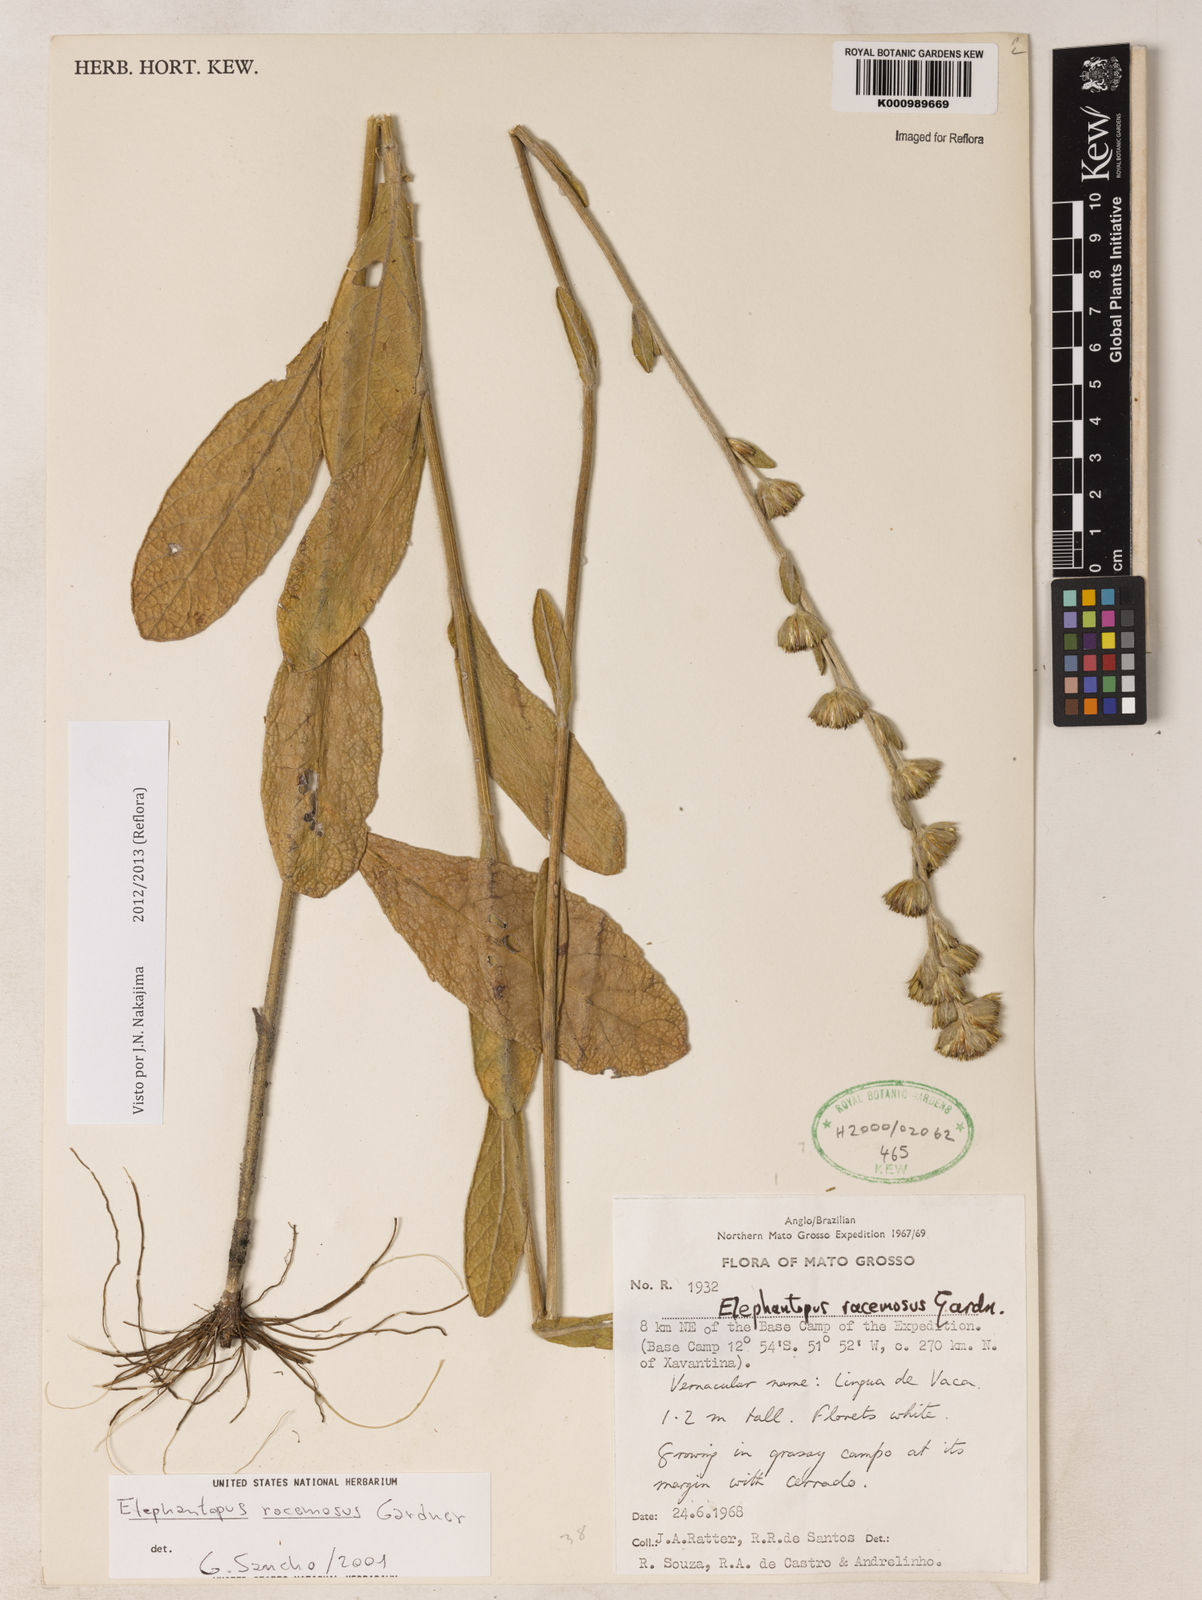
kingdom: Plantae
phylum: Tracheophyta
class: Magnoliopsida
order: Asterales
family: Asteraceae
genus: Elephantopus
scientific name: Elephantopus racemosus
